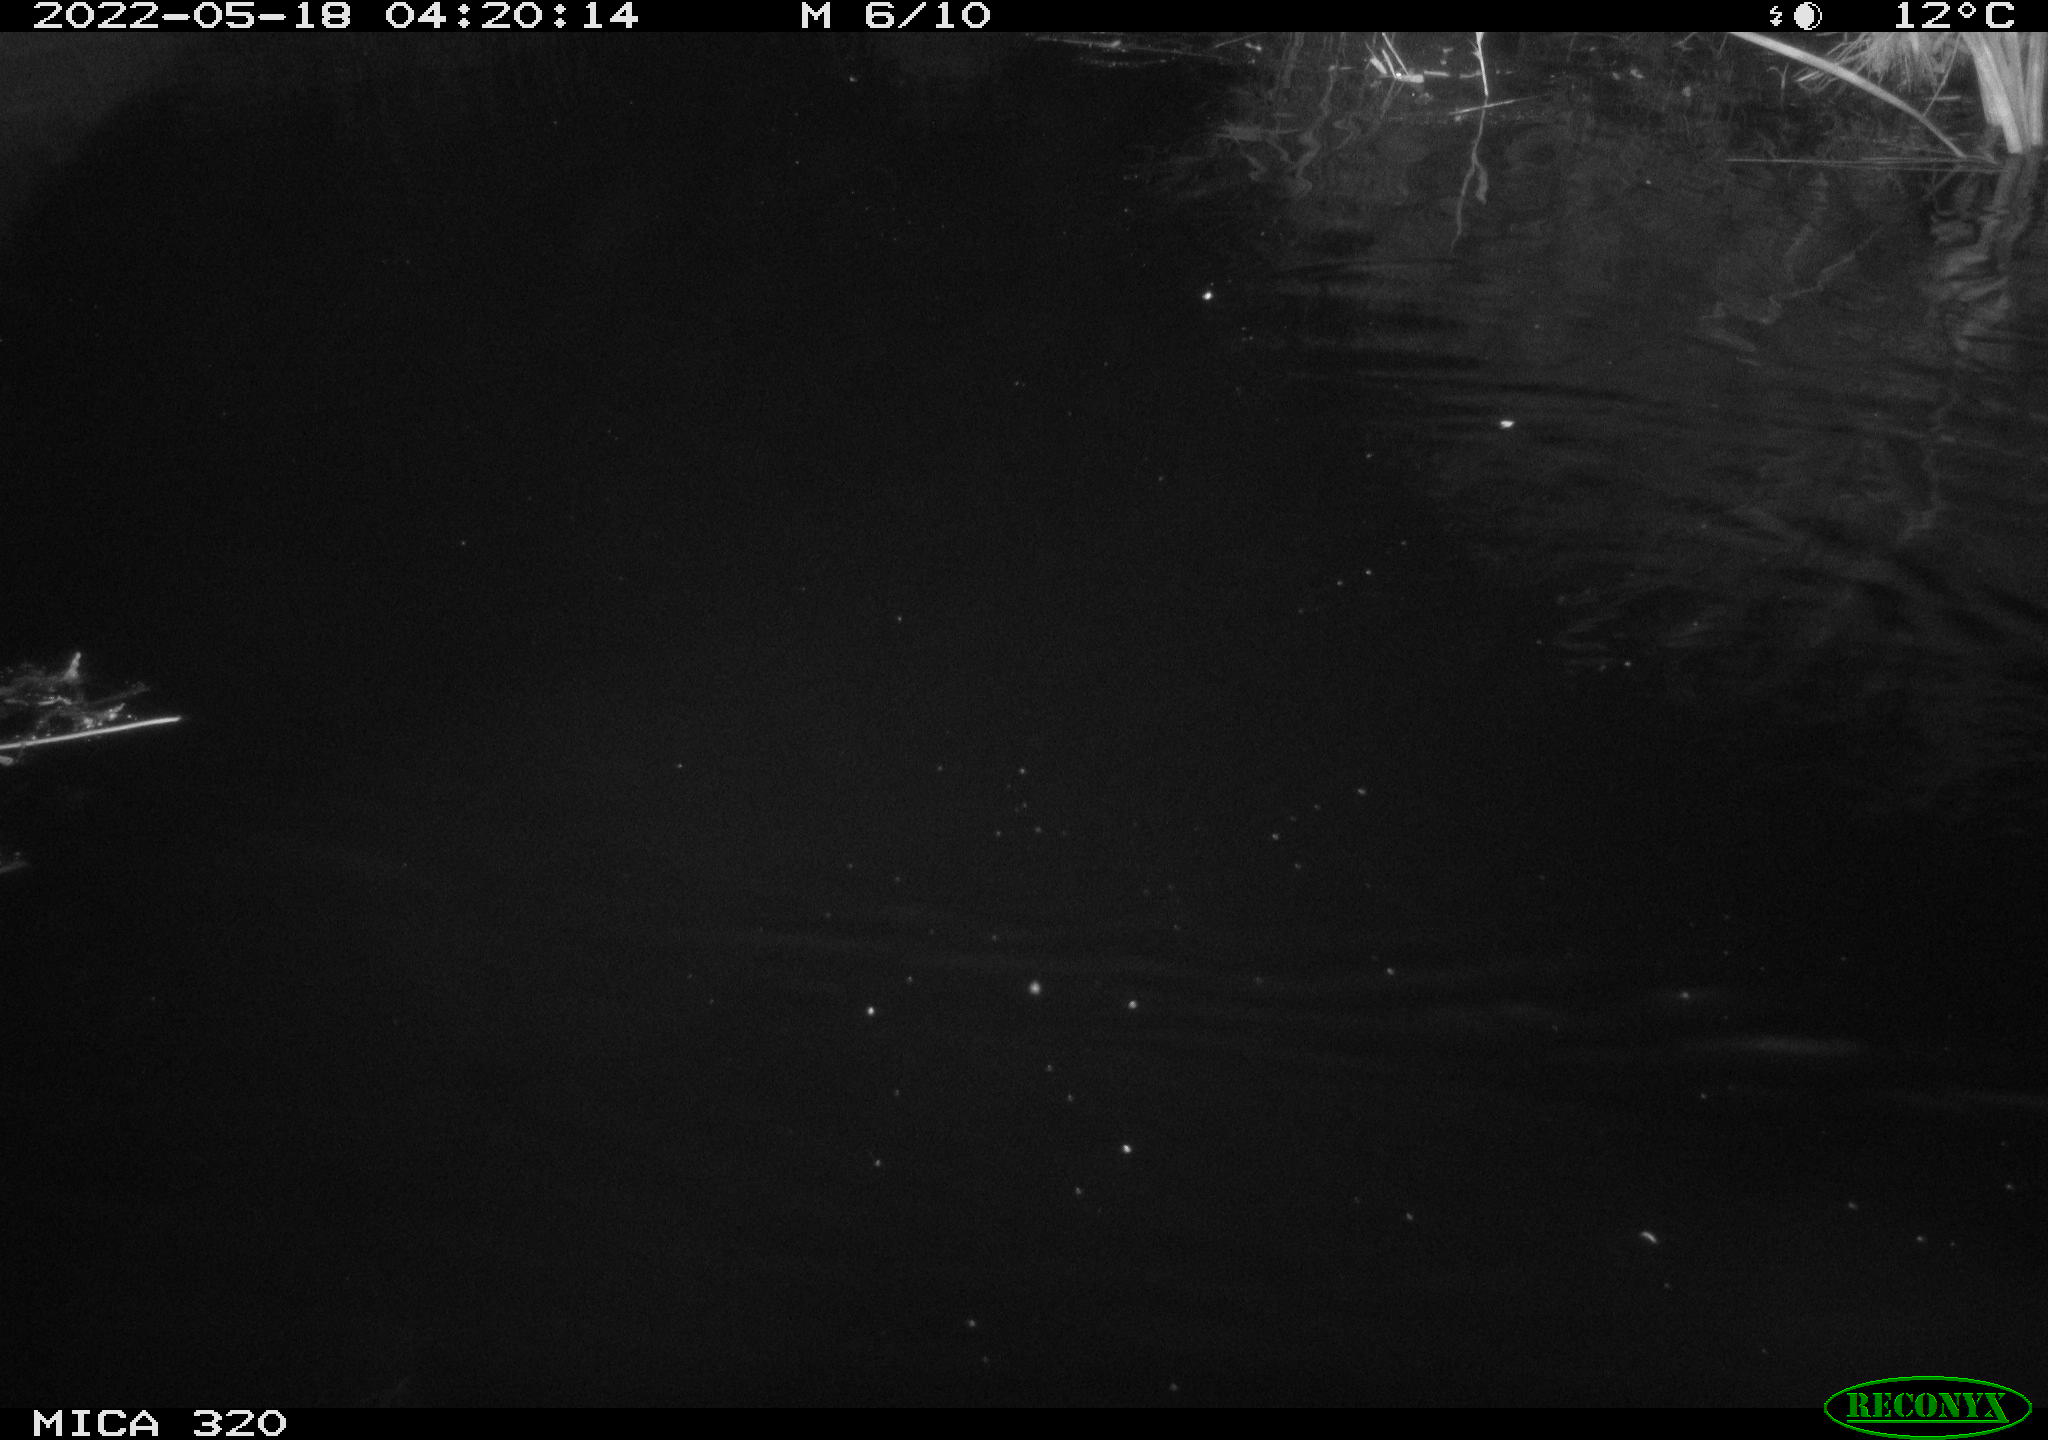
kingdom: Animalia
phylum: Chordata
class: Aves
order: Anseriformes
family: Anatidae
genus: Mareca
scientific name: Mareca strepera
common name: Gadwall
